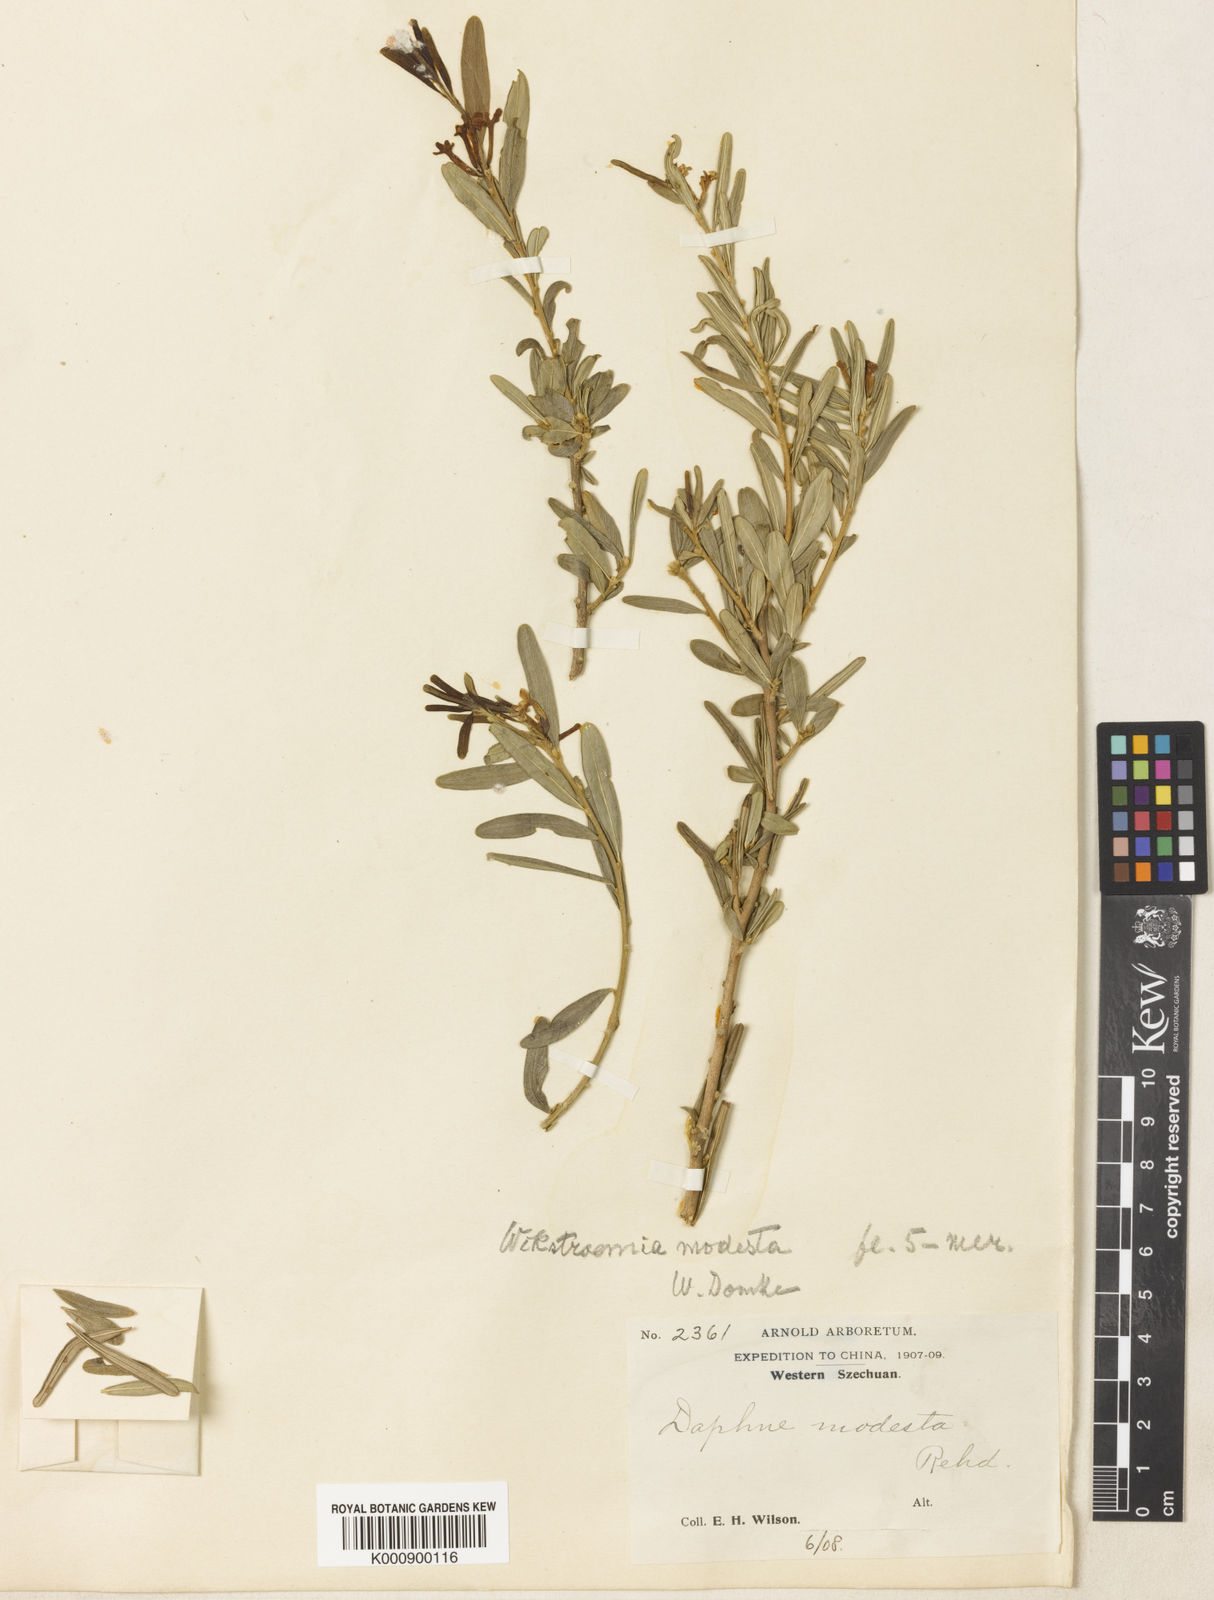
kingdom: Plantae
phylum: Tracheophyta
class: Magnoliopsida
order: Malvales
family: Thymelaeaceae
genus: Wikstroemia
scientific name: Wikstroemia modesta
